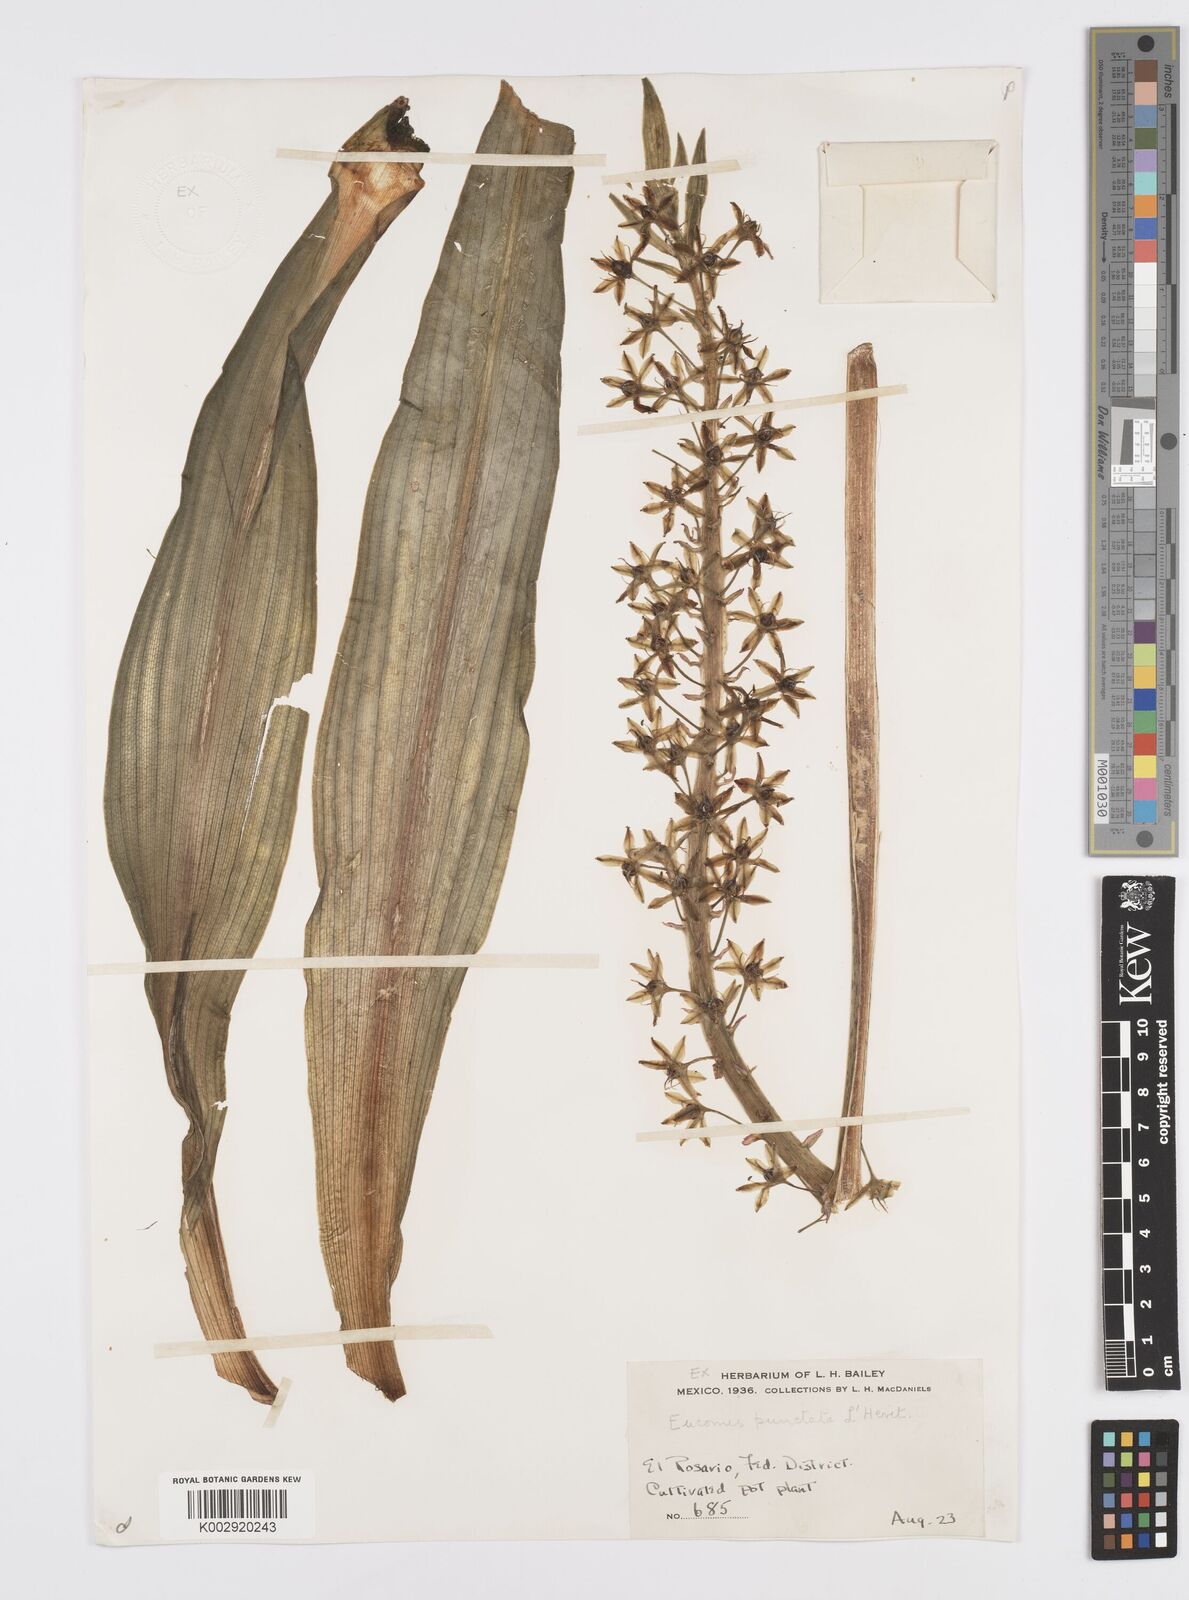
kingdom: Plantae
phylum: Tracheophyta
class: Liliopsida
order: Asparagales
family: Asparagaceae
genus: Eucomis
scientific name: Eucomis comosa
